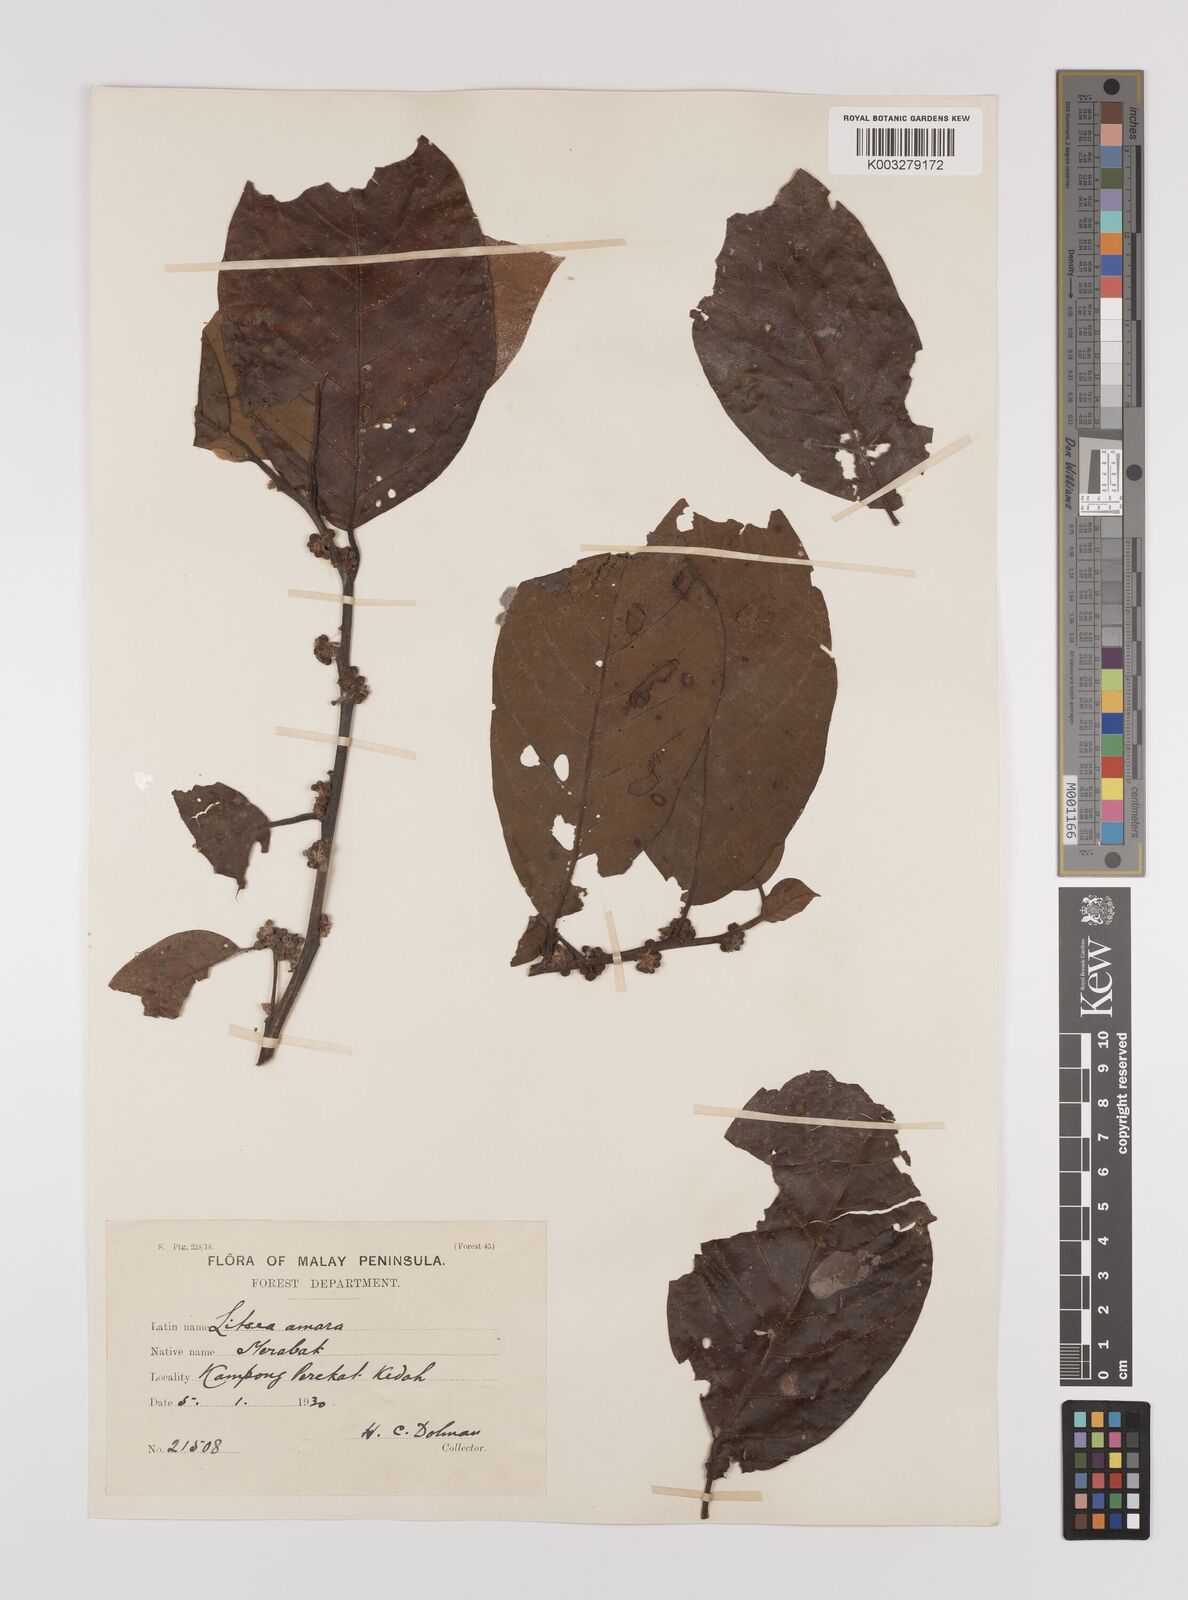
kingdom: Plantae
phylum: Tracheophyta
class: Magnoliopsida
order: Laurales
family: Lauraceae
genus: Litsea
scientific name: Litsea umbellata
